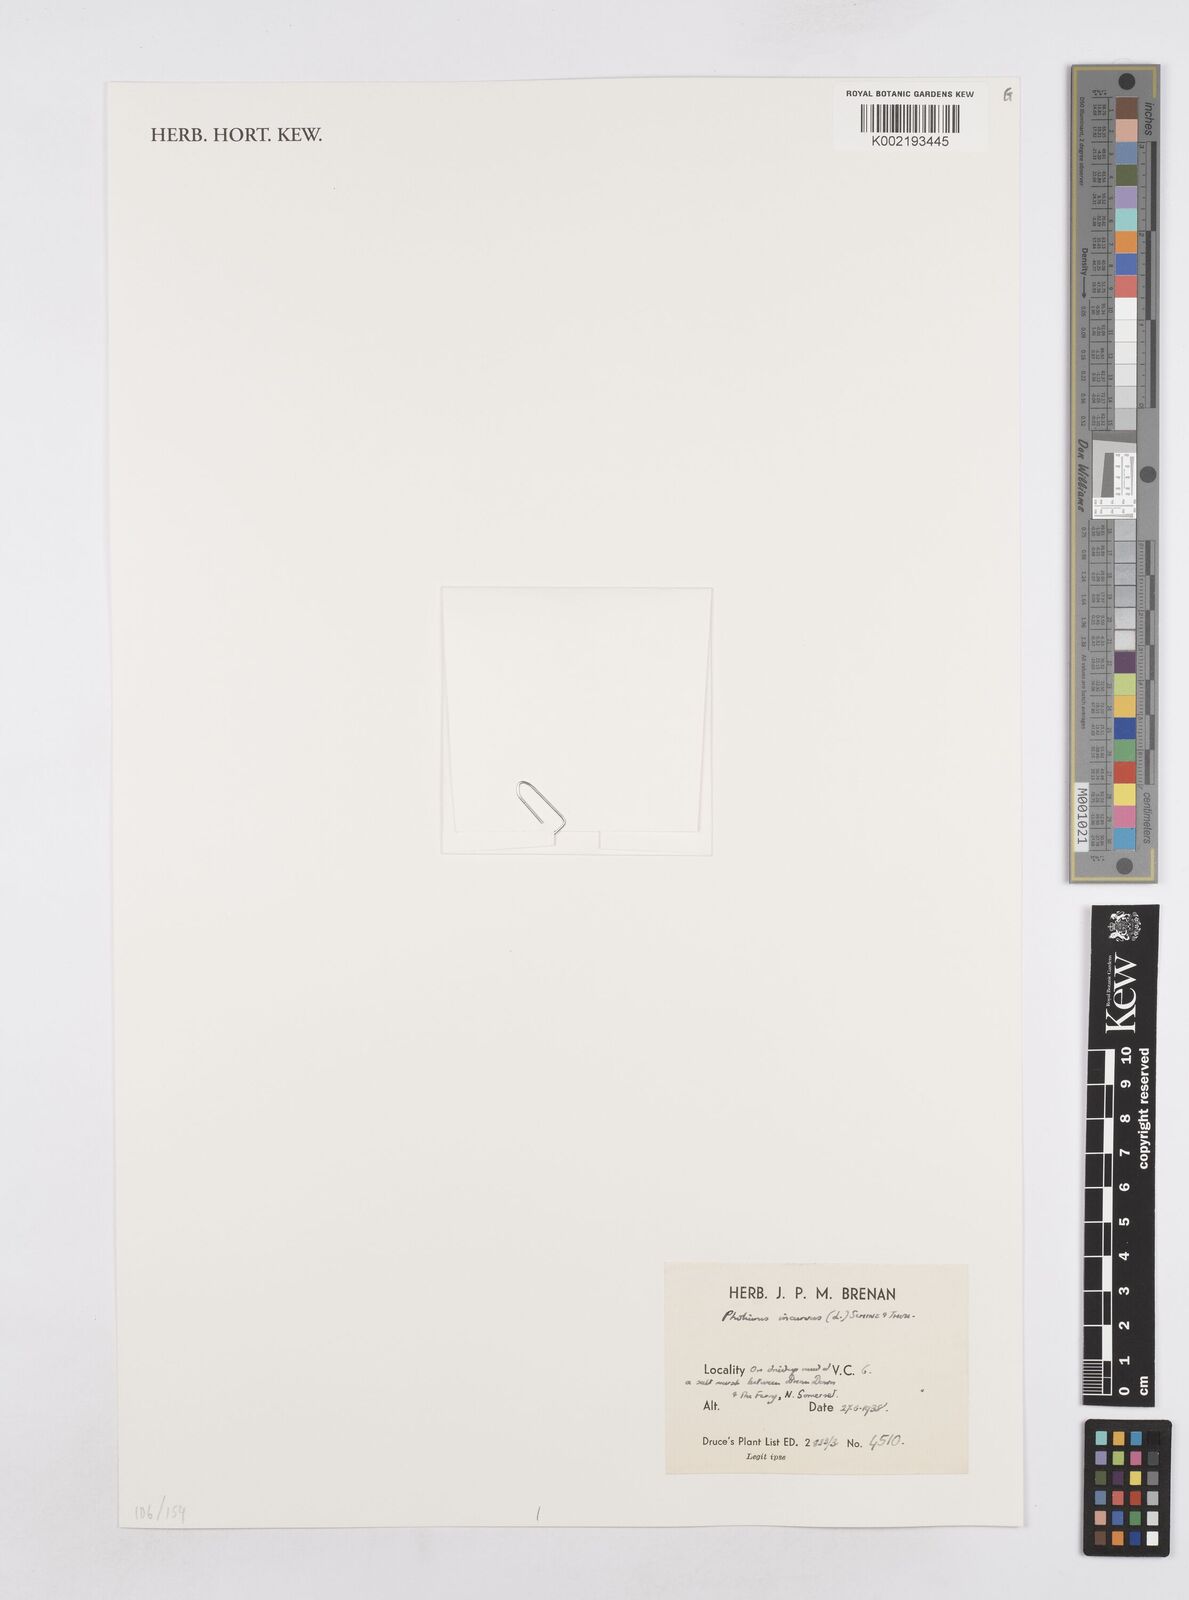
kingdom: Plantae
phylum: Tracheophyta
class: Liliopsida
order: Poales
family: Poaceae
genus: Parapholis
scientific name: Parapholis incurva
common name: Curved sicklegrass
